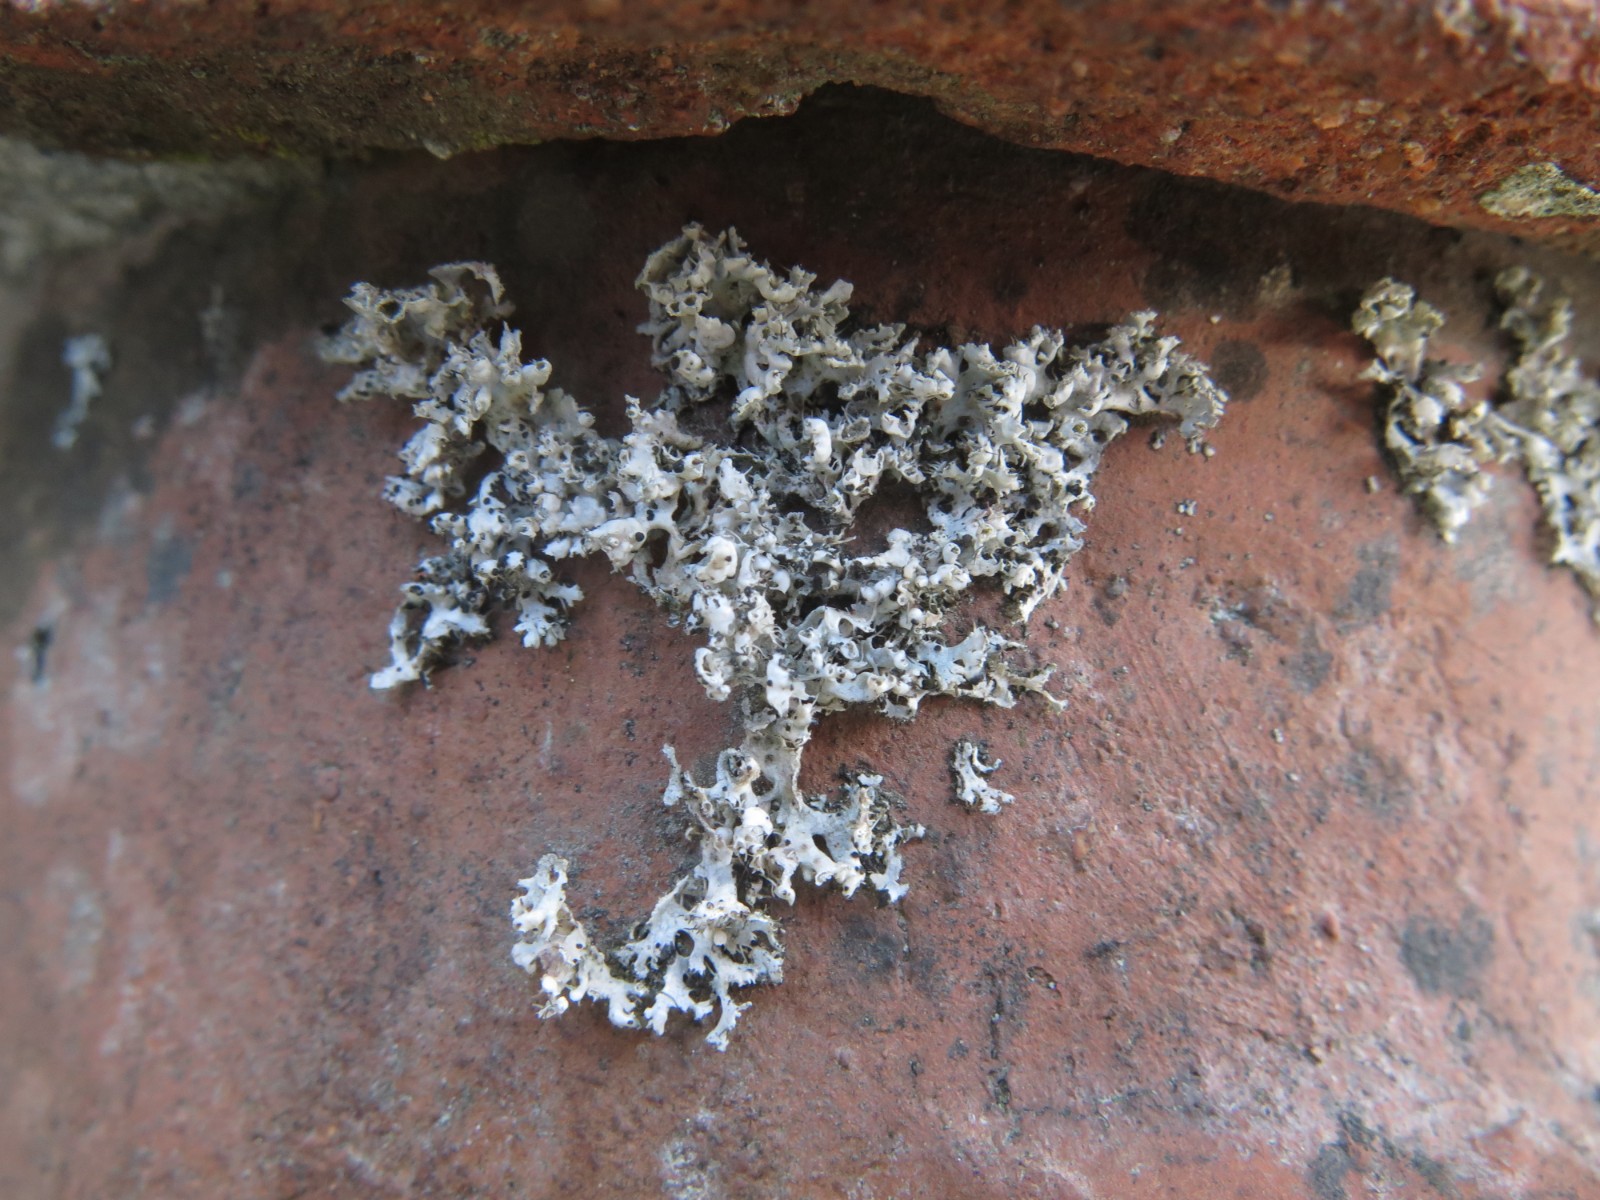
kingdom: Fungi
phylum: Ascomycota
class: Lecanoromycetes
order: Caliciales
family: Physciaceae
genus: Physcia
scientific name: Physcia tenella
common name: spæd rosetlav
